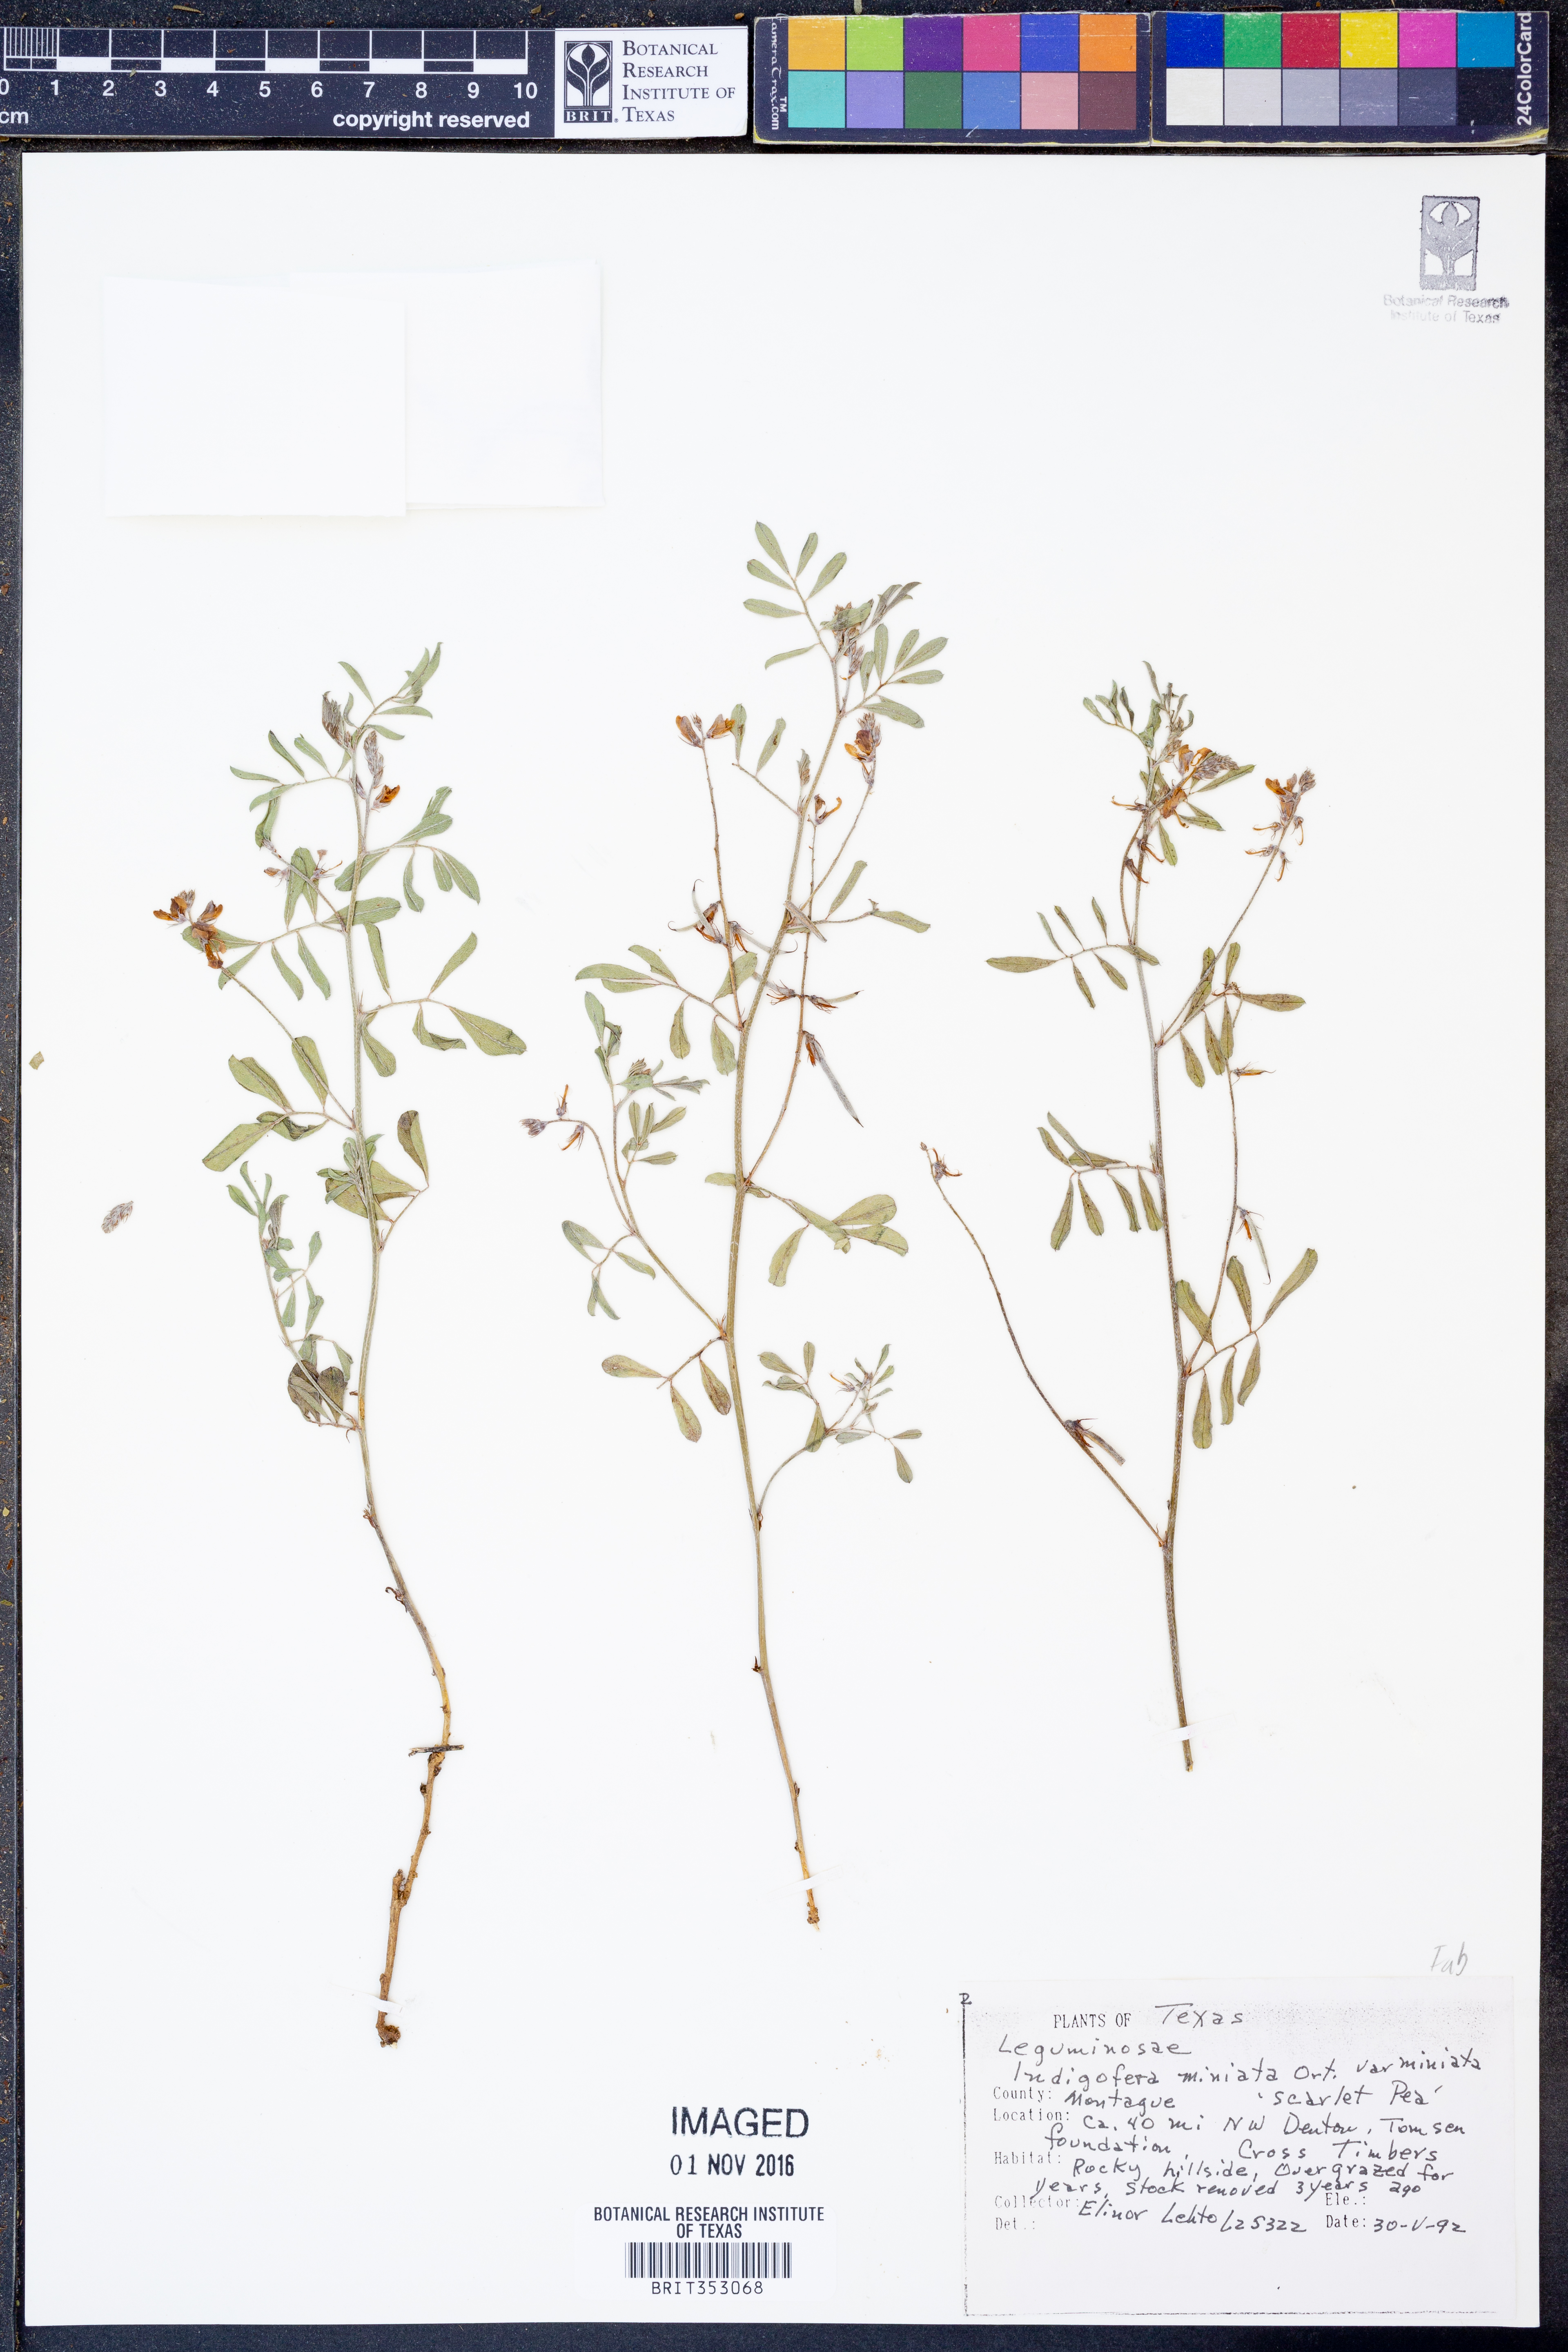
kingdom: Plantae
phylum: Tracheophyta
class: Magnoliopsida
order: Fabales
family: Fabaceae
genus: Indigofera
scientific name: Indigofera miniata
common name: Coast indigo
